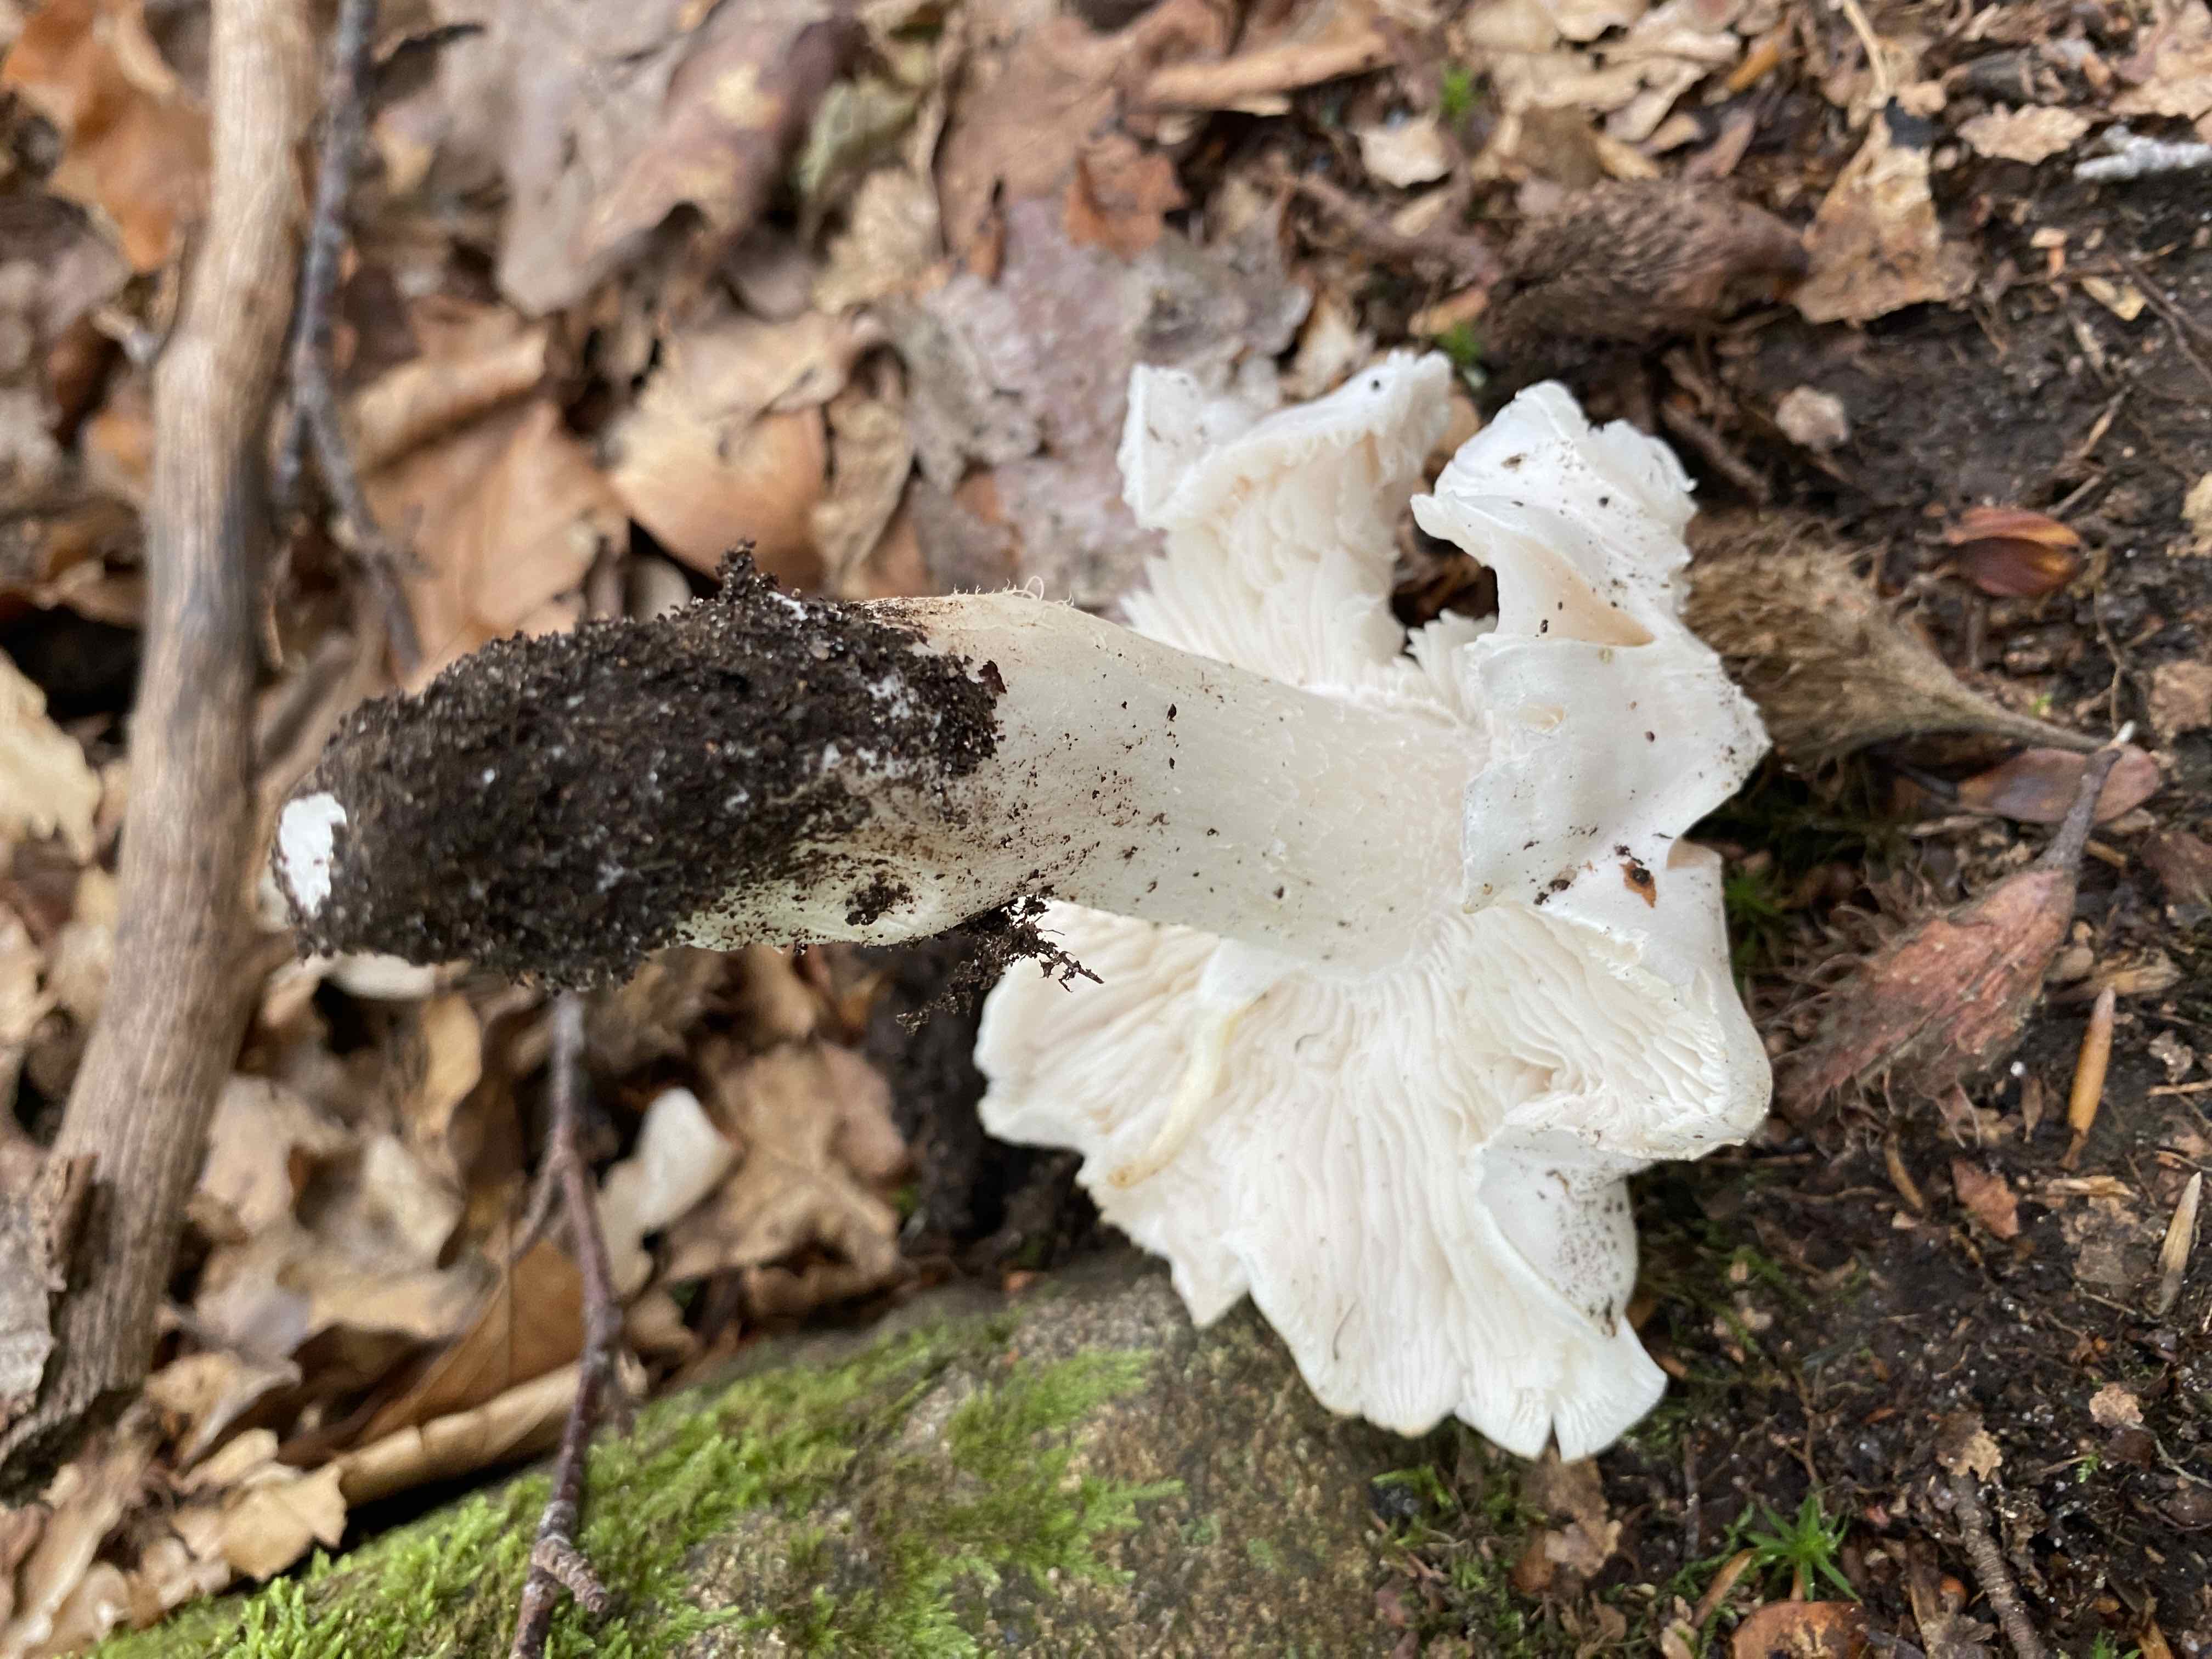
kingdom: Fungi
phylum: Basidiomycota
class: Agaricomycetes
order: Agaricales
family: Tricholomataceae
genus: Tricholoma
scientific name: Tricholoma columbetta
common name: silke-ridderhat
